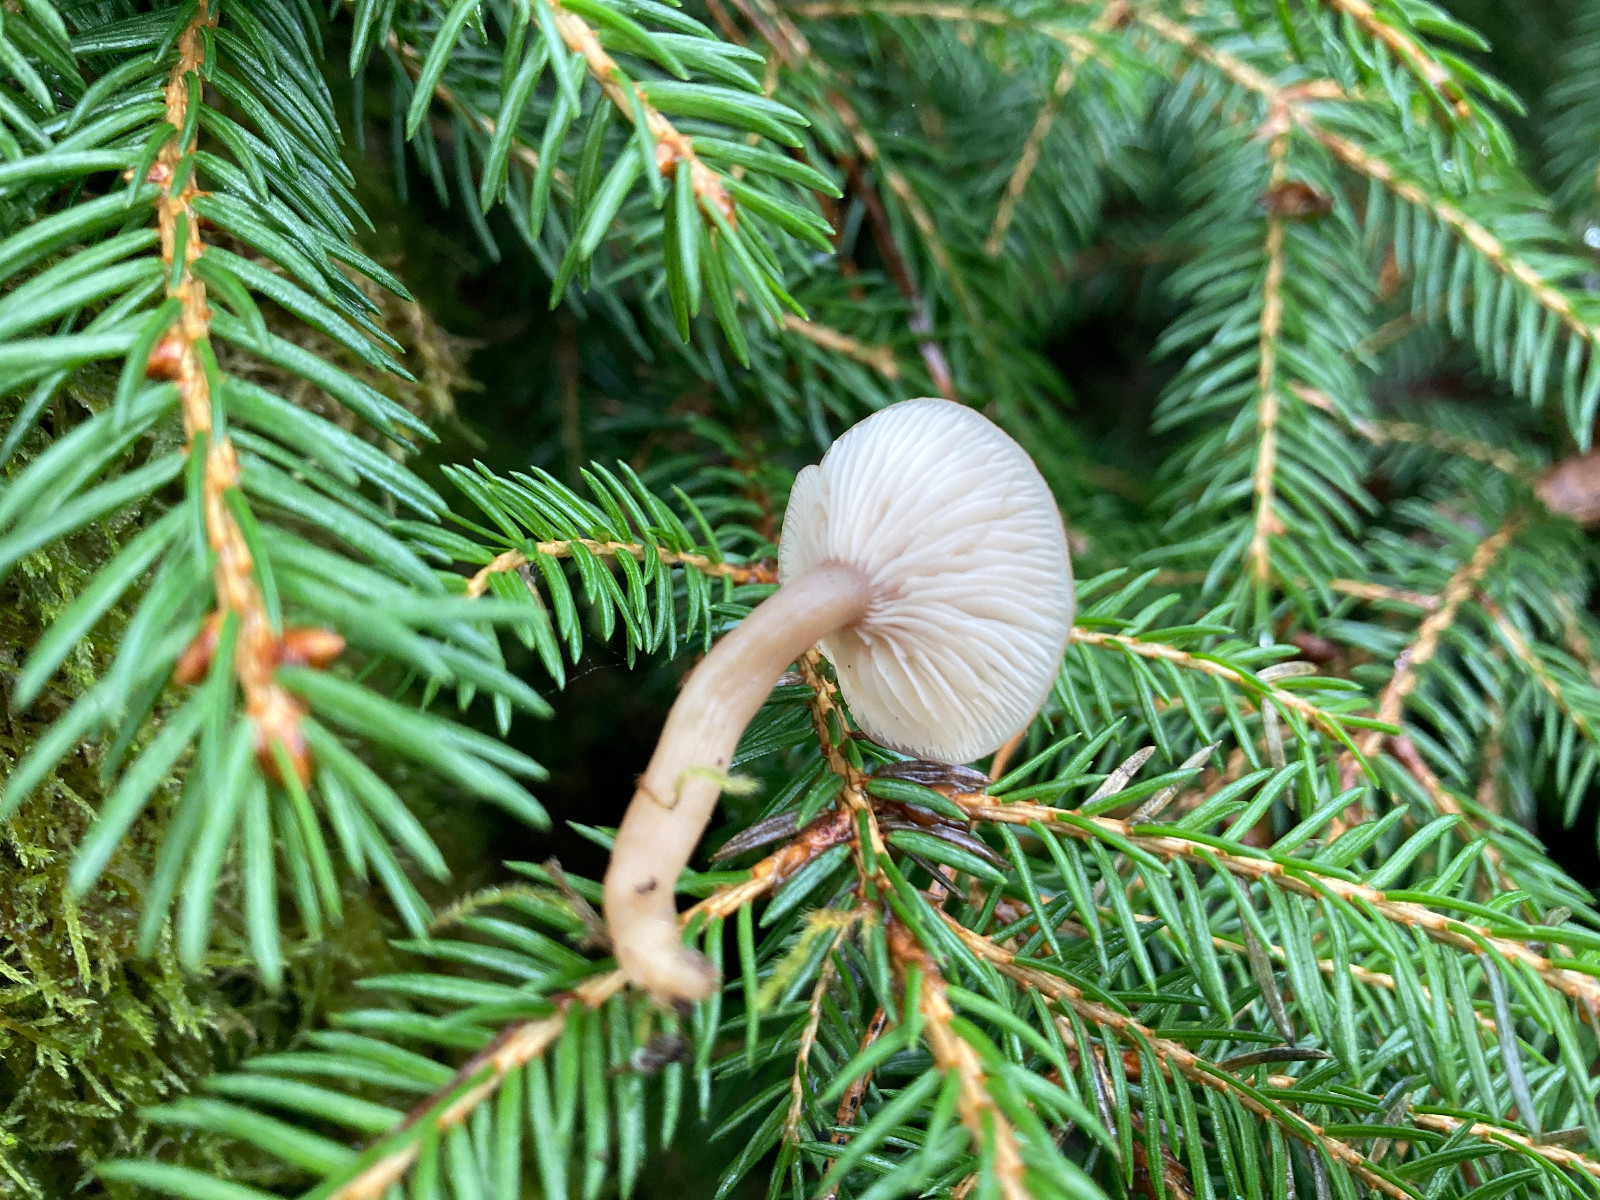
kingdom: Fungi
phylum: Basidiomycota
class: Agaricomycetes
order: Agaricales
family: Tricholomataceae
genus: Clitocybe
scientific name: Clitocybe fragrans
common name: vellugtende tragthat
